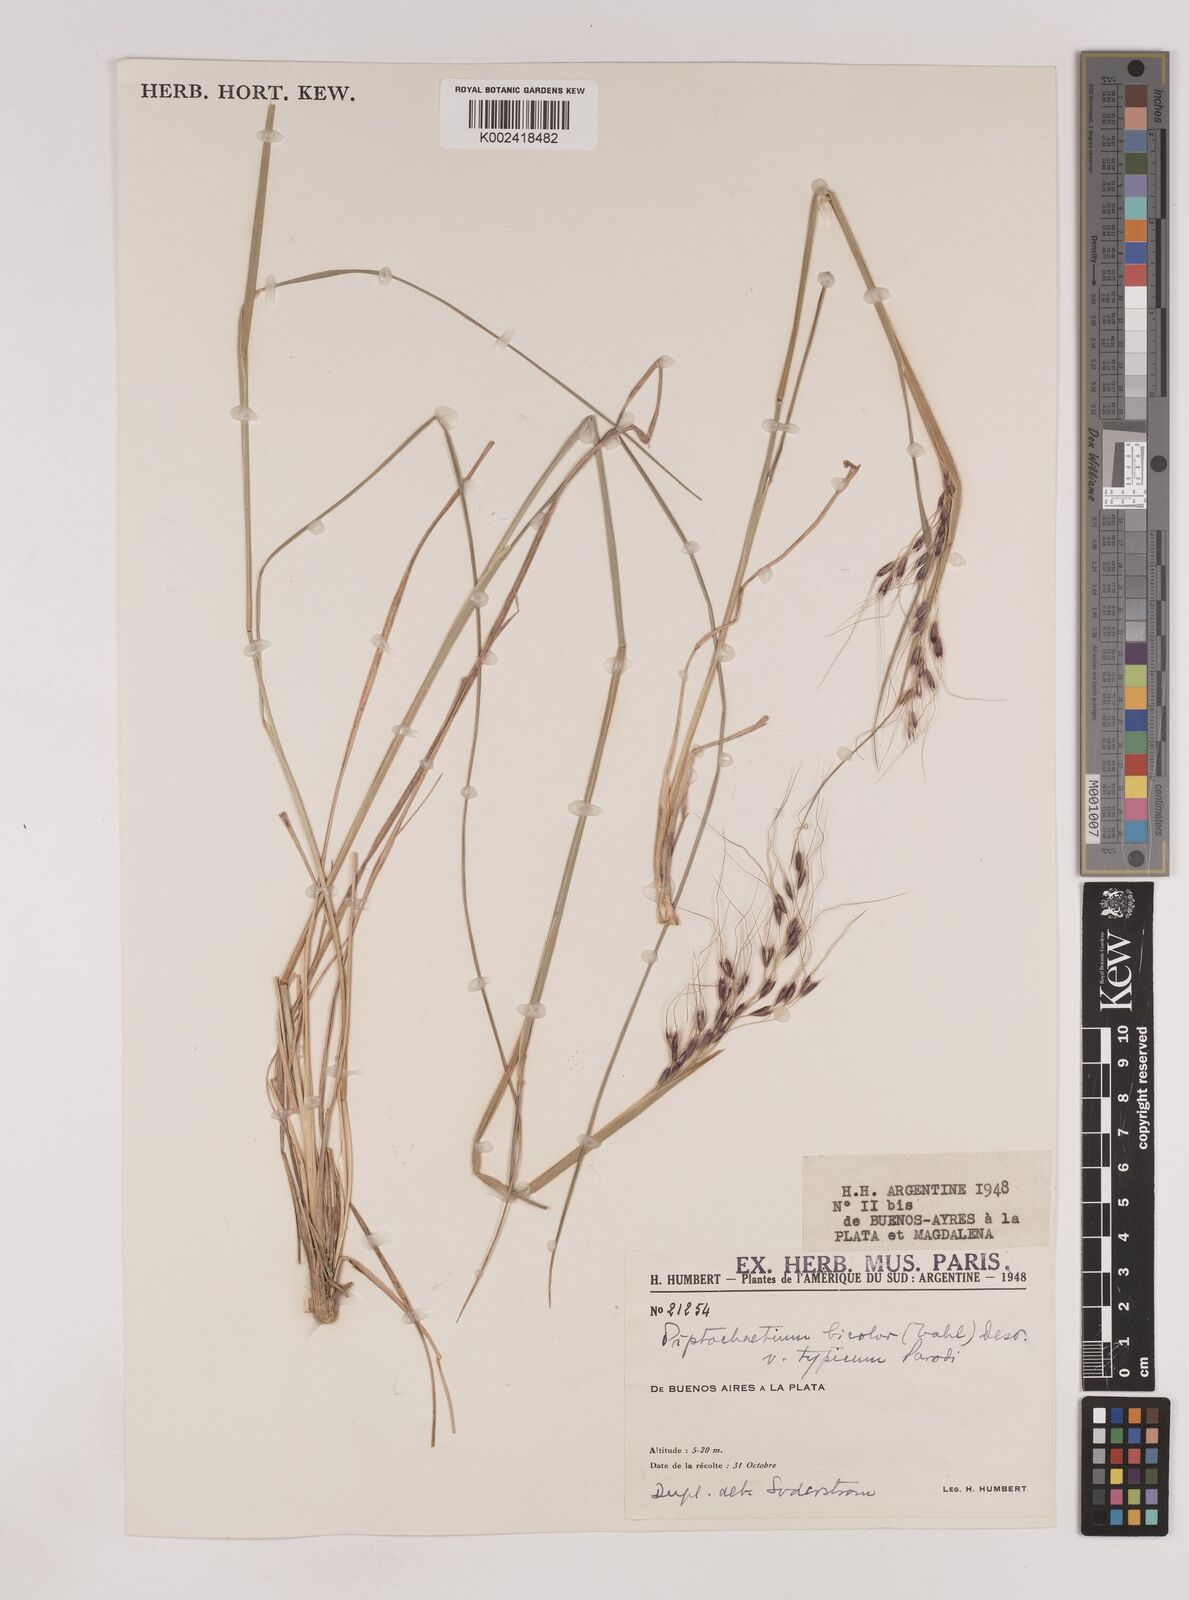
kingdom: Plantae
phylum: Tracheophyta
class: Liliopsida
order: Poales
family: Poaceae
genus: Piptochaetium
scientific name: Piptochaetium bicolor
